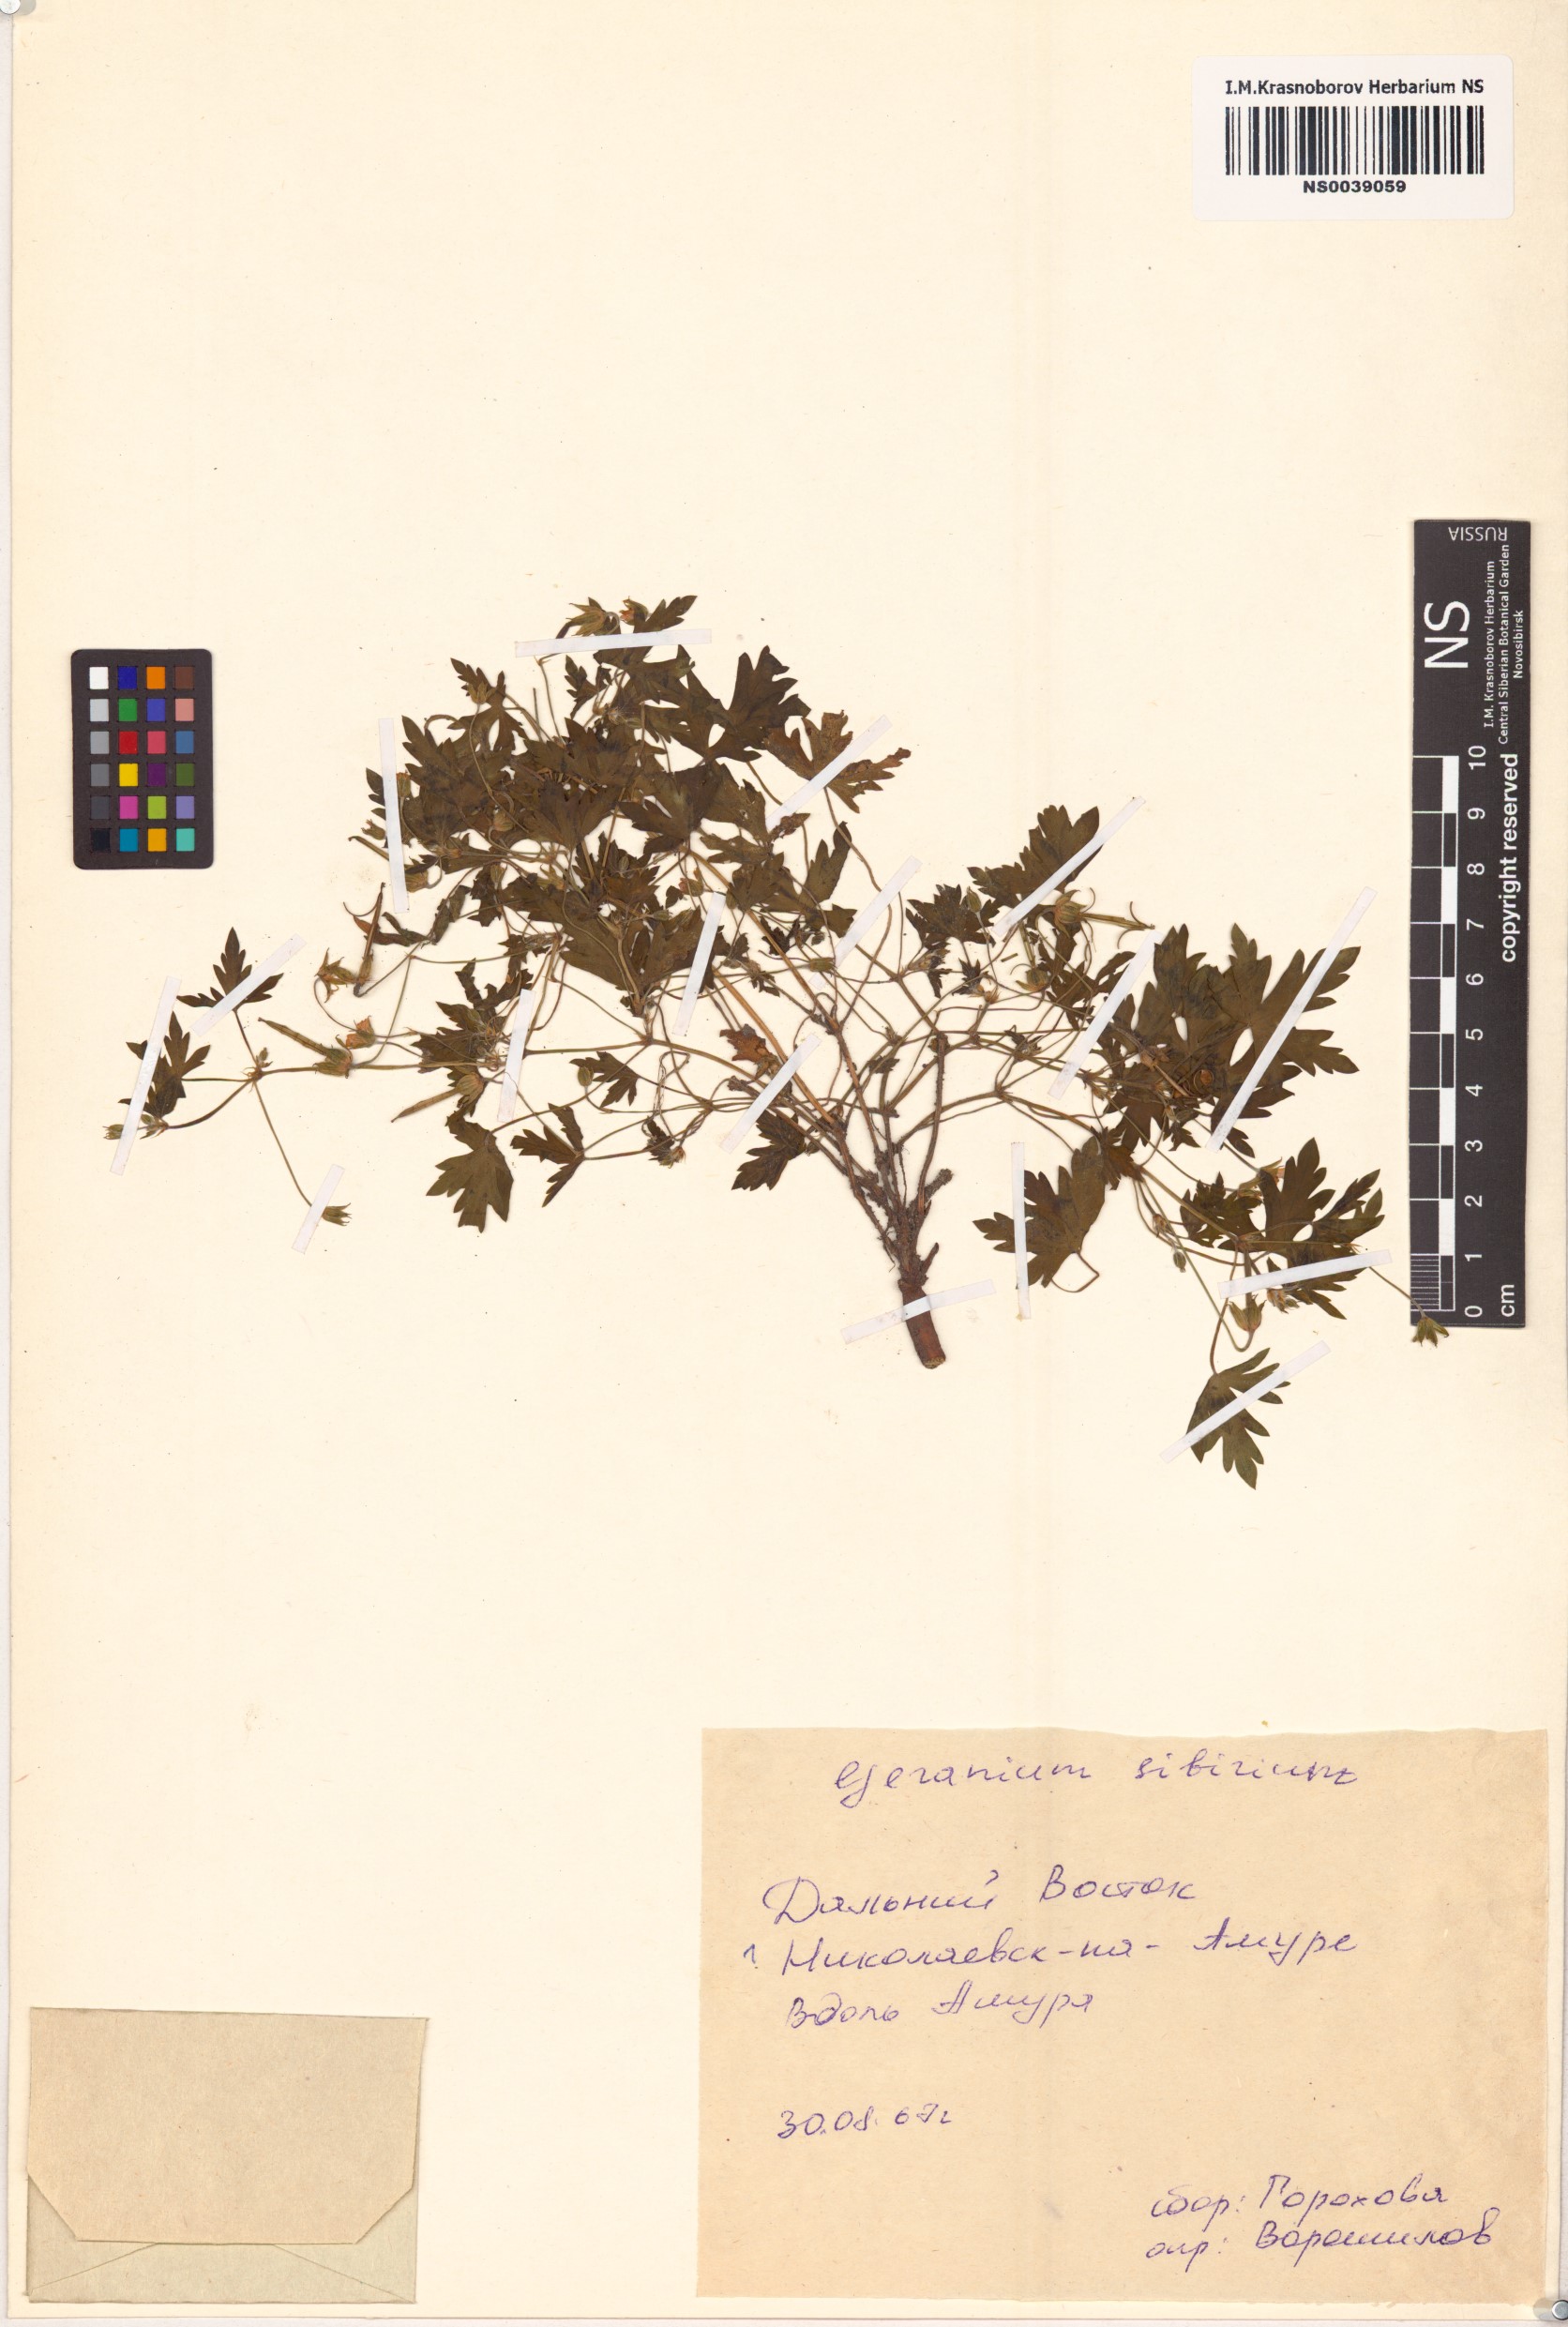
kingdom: Plantae
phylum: Tracheophyta
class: Magnoliopsida
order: Geraniales
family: Geraniaceae
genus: Geranium
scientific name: Geranium sibiricum
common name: Siberian crane's-bill
